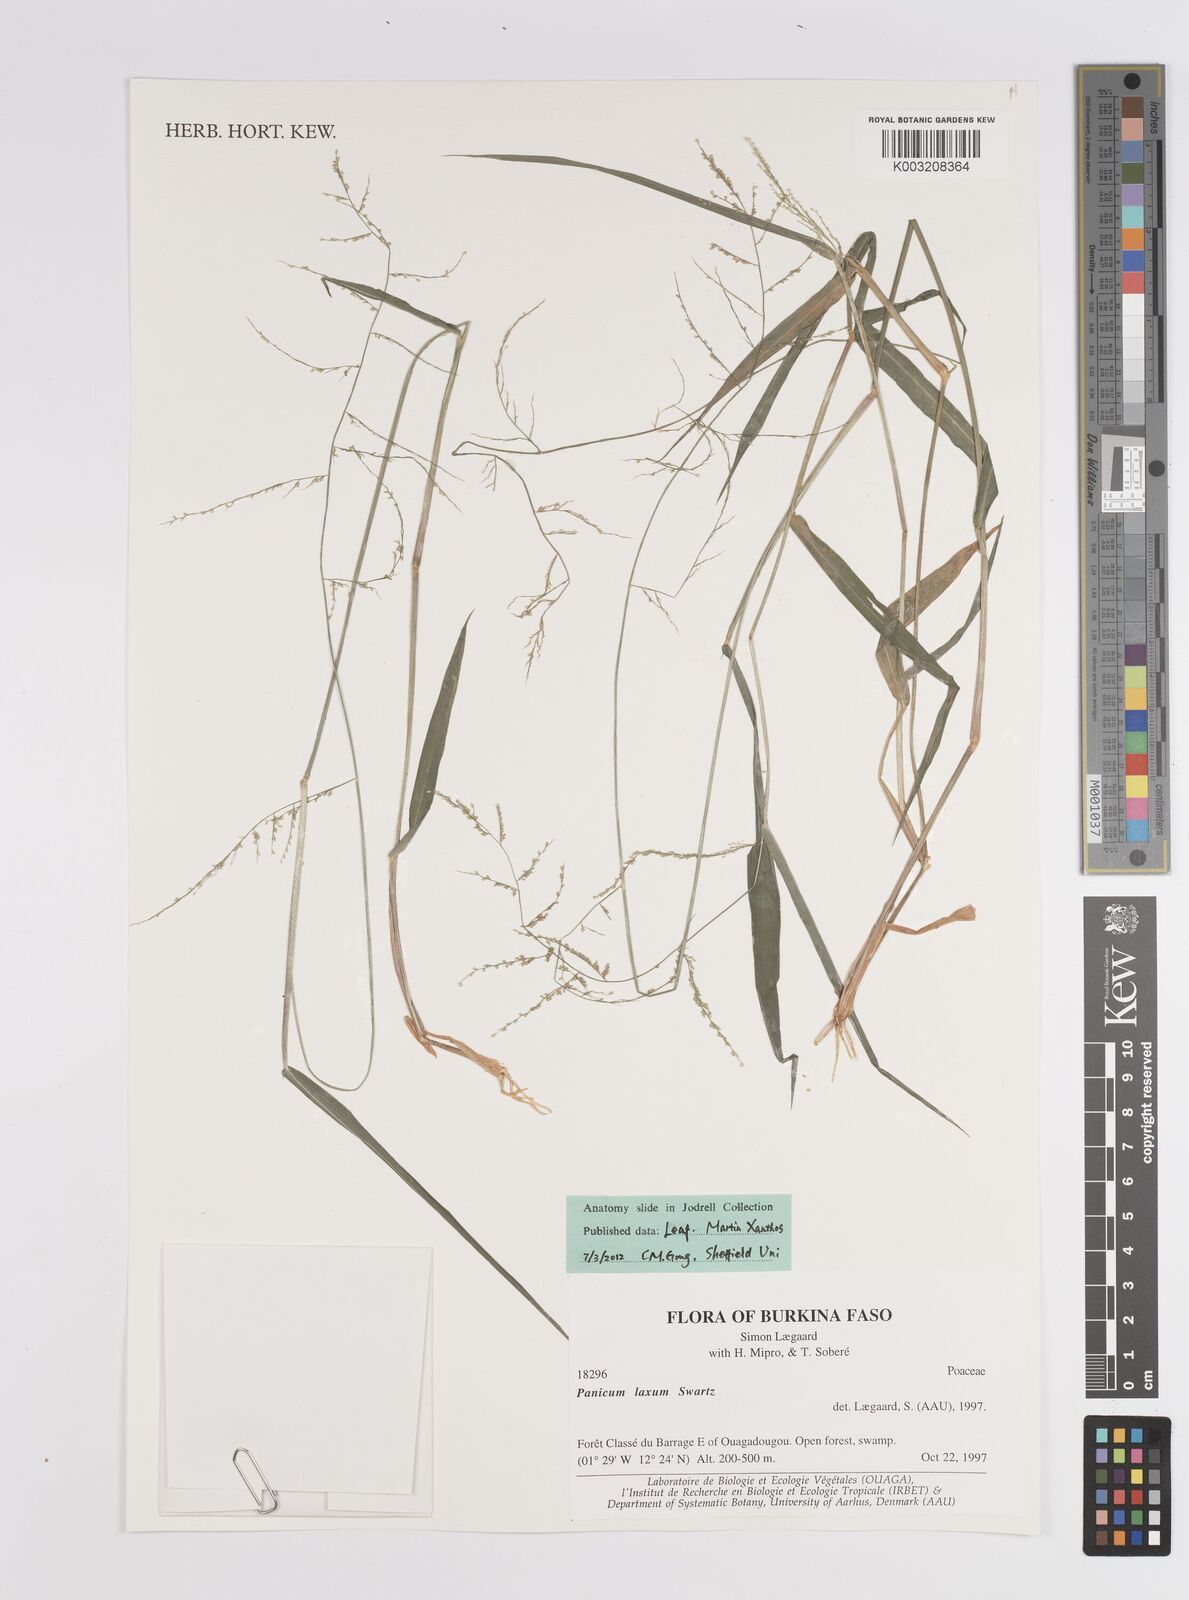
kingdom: Plantae
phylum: Tracheophyta
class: Liliopsida
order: Poales
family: Poaceae
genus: Steinchisma
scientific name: Steinchisma laxum
